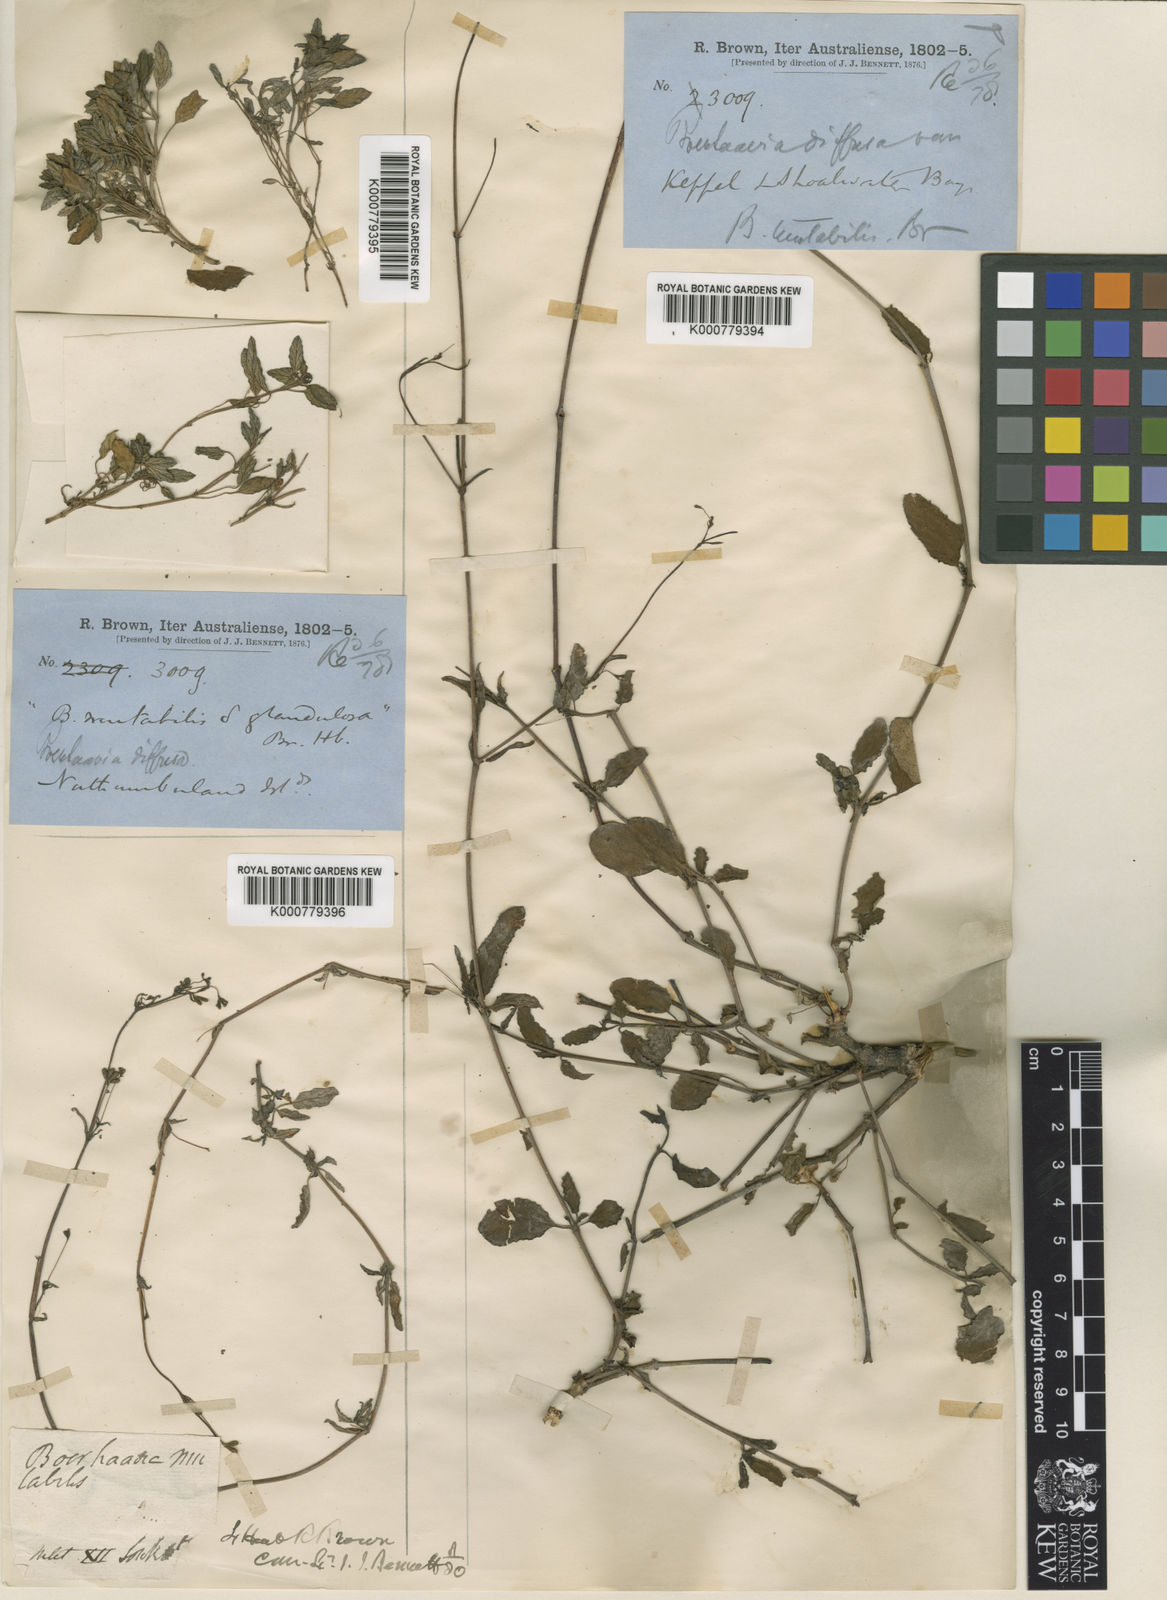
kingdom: Plantae
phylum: Tracheophyta
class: Magnoliopsida
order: Caryophyllales
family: Nyctaginaceae
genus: Boerhavia
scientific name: Boerhavia tetrandra
